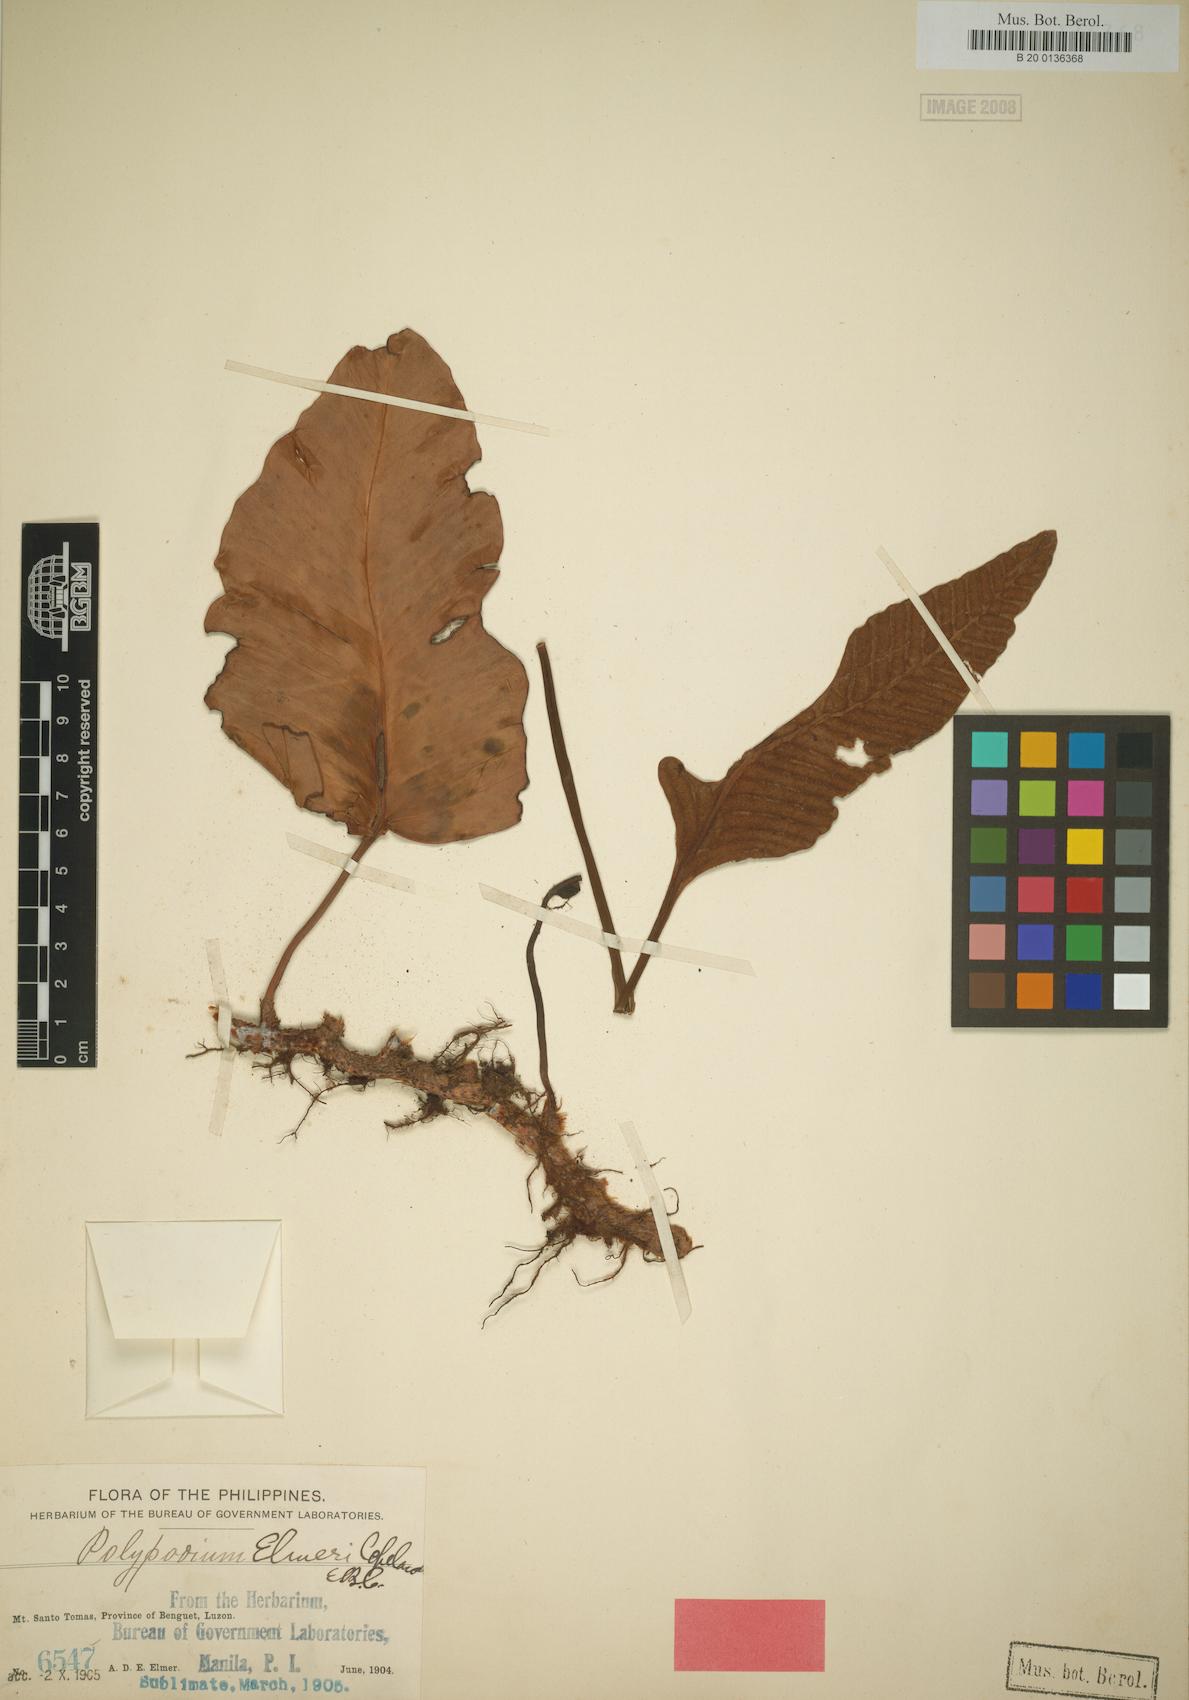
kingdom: Plantae
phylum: Tracheophyta
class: Polypodiopsida
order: Polypodiales
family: Polypodiaceae
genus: Selliguea
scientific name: Selliguea elmeri
